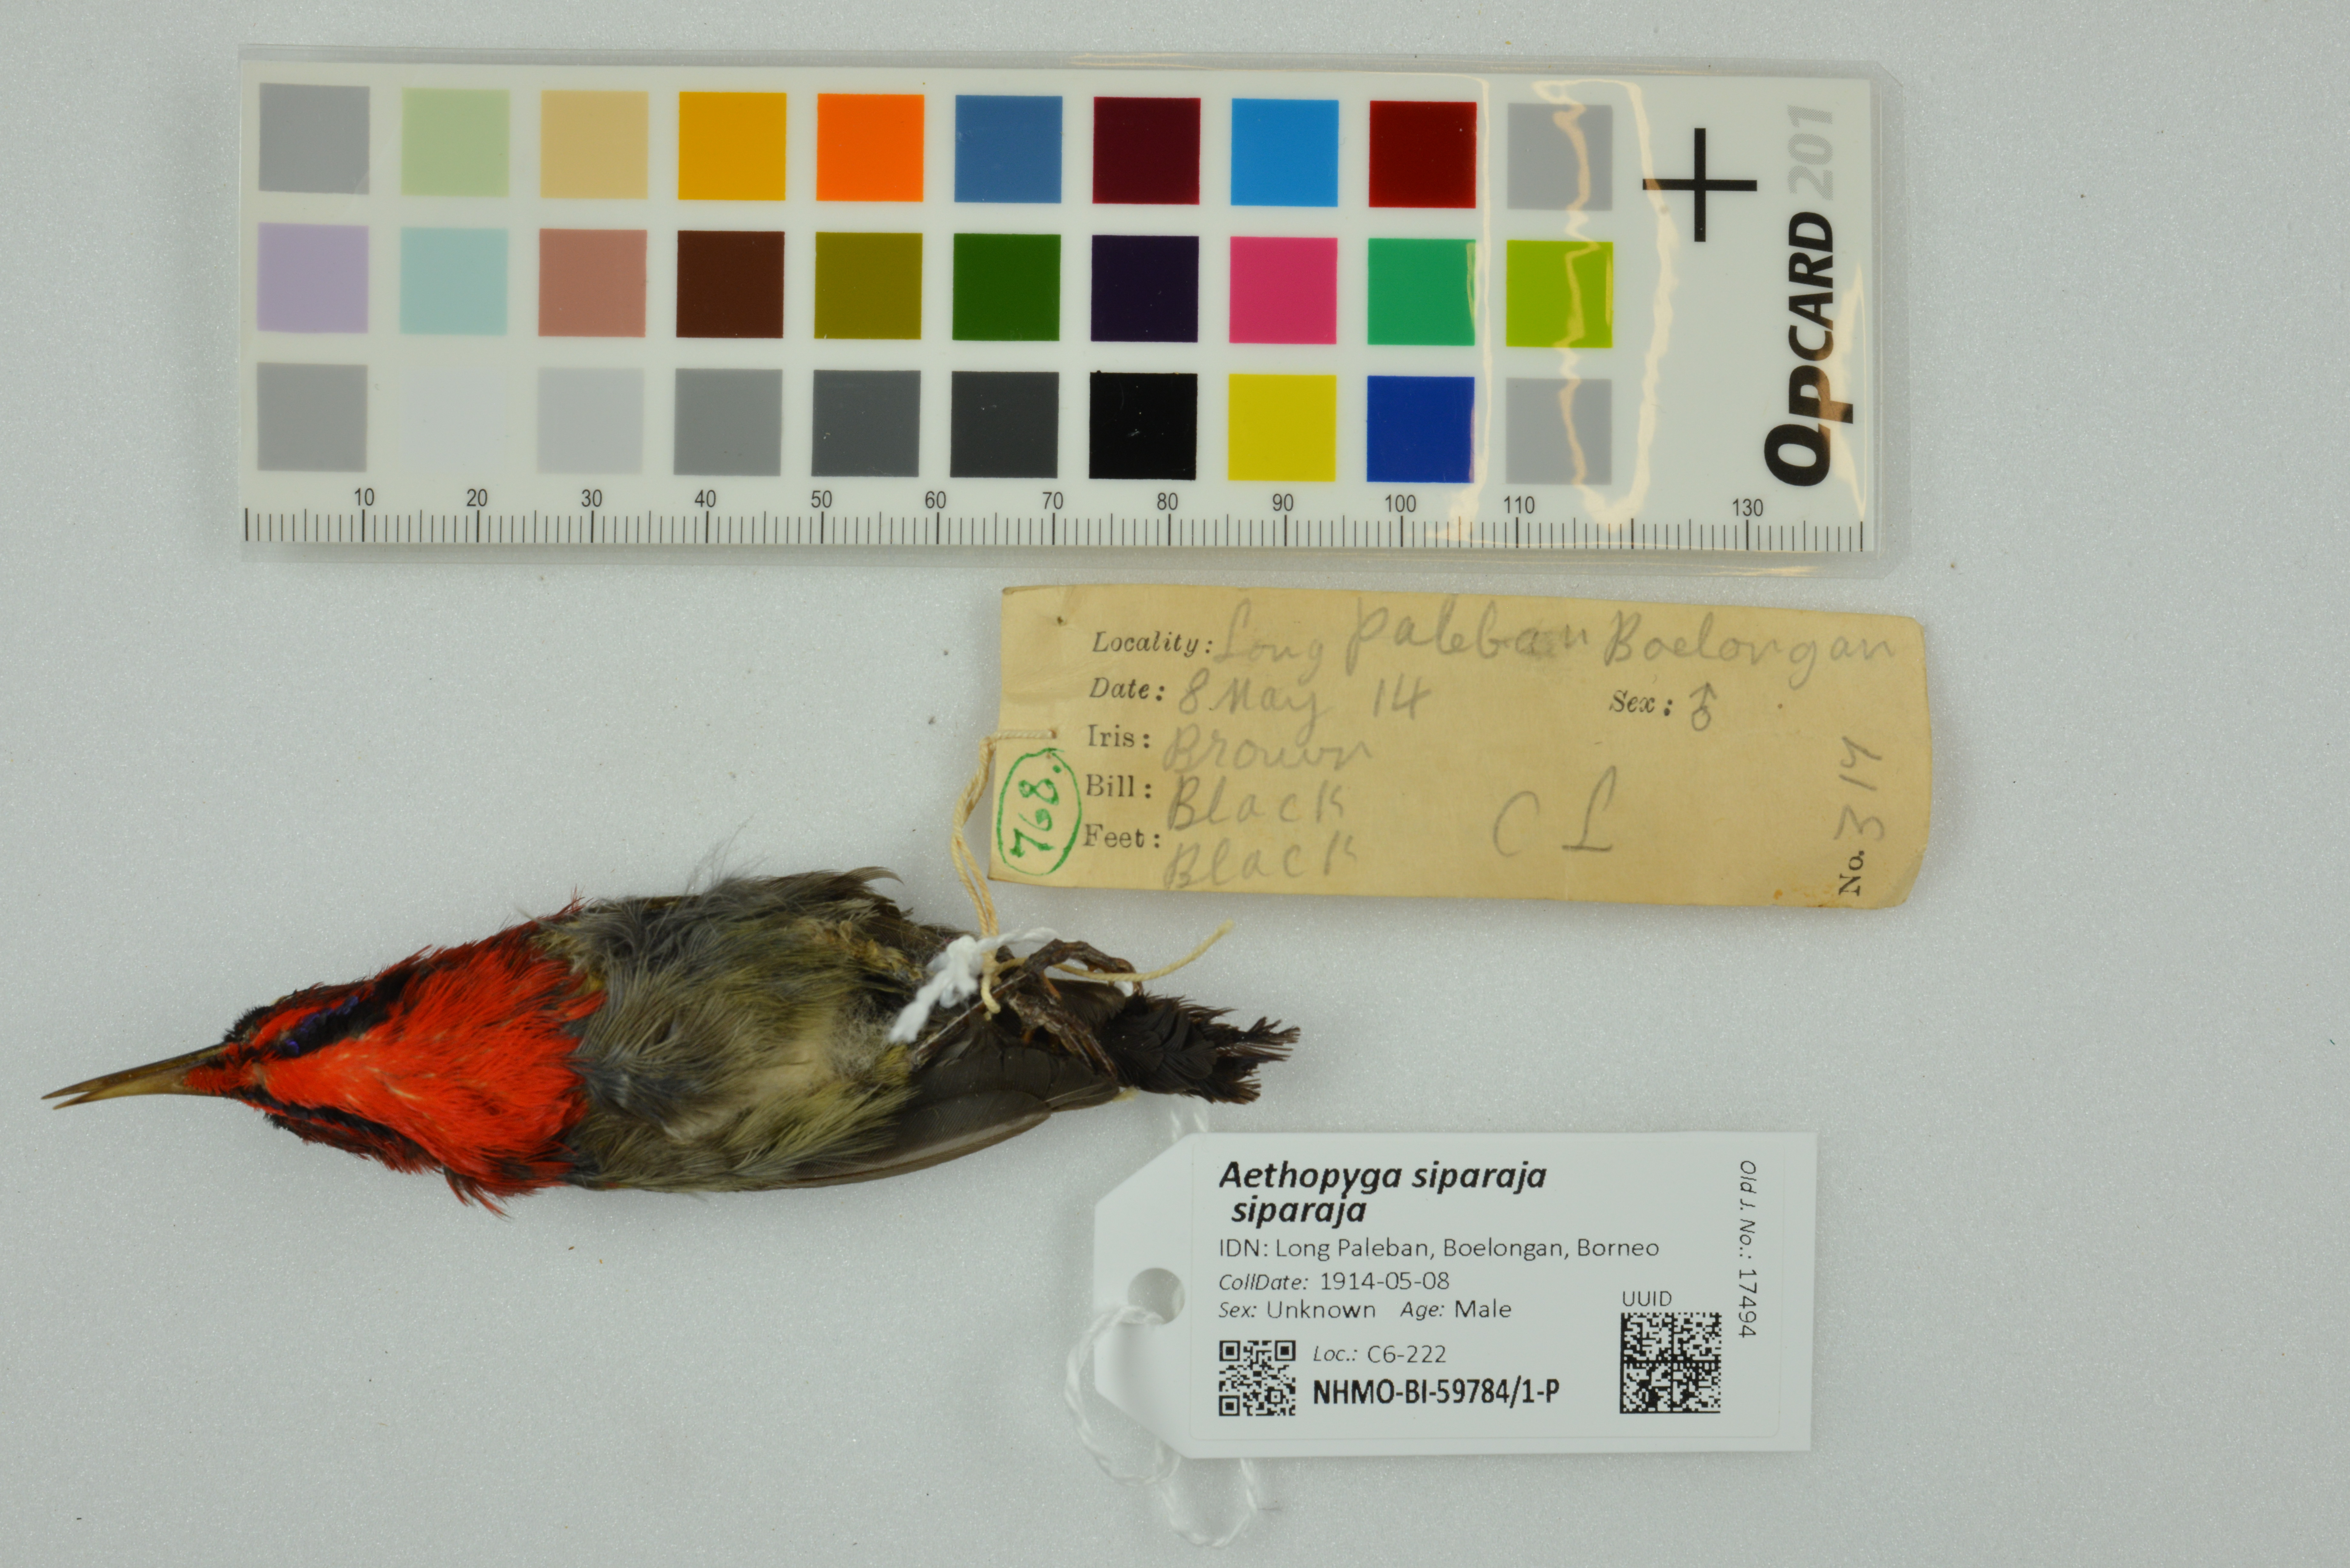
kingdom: Animalia
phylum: Chordata
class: Aves
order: Passeriformes
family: Nectariniidae
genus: Aethopyga
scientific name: Aethopyga siparaja
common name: Crimson sunbird
